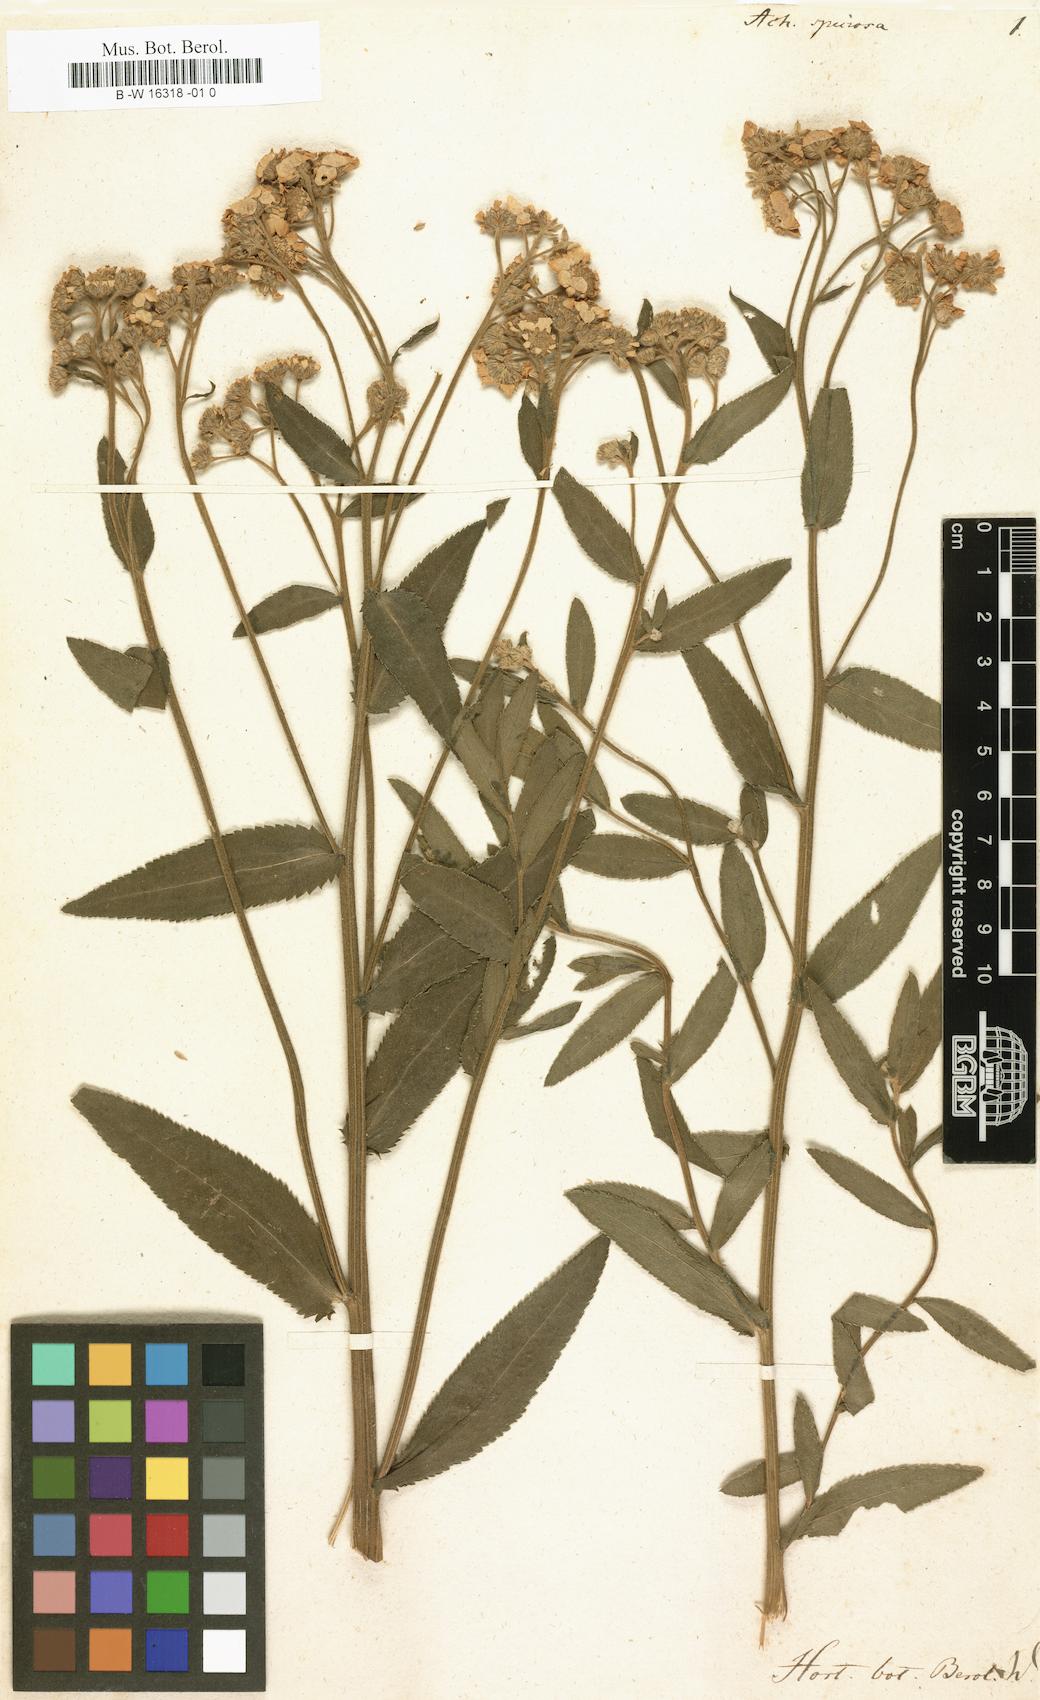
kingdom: Plantae
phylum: Tracheophyta
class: Magnoliopsida
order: Asterales
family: Asteraceae
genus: Tanacetum
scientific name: Tanacetum cadmeum
